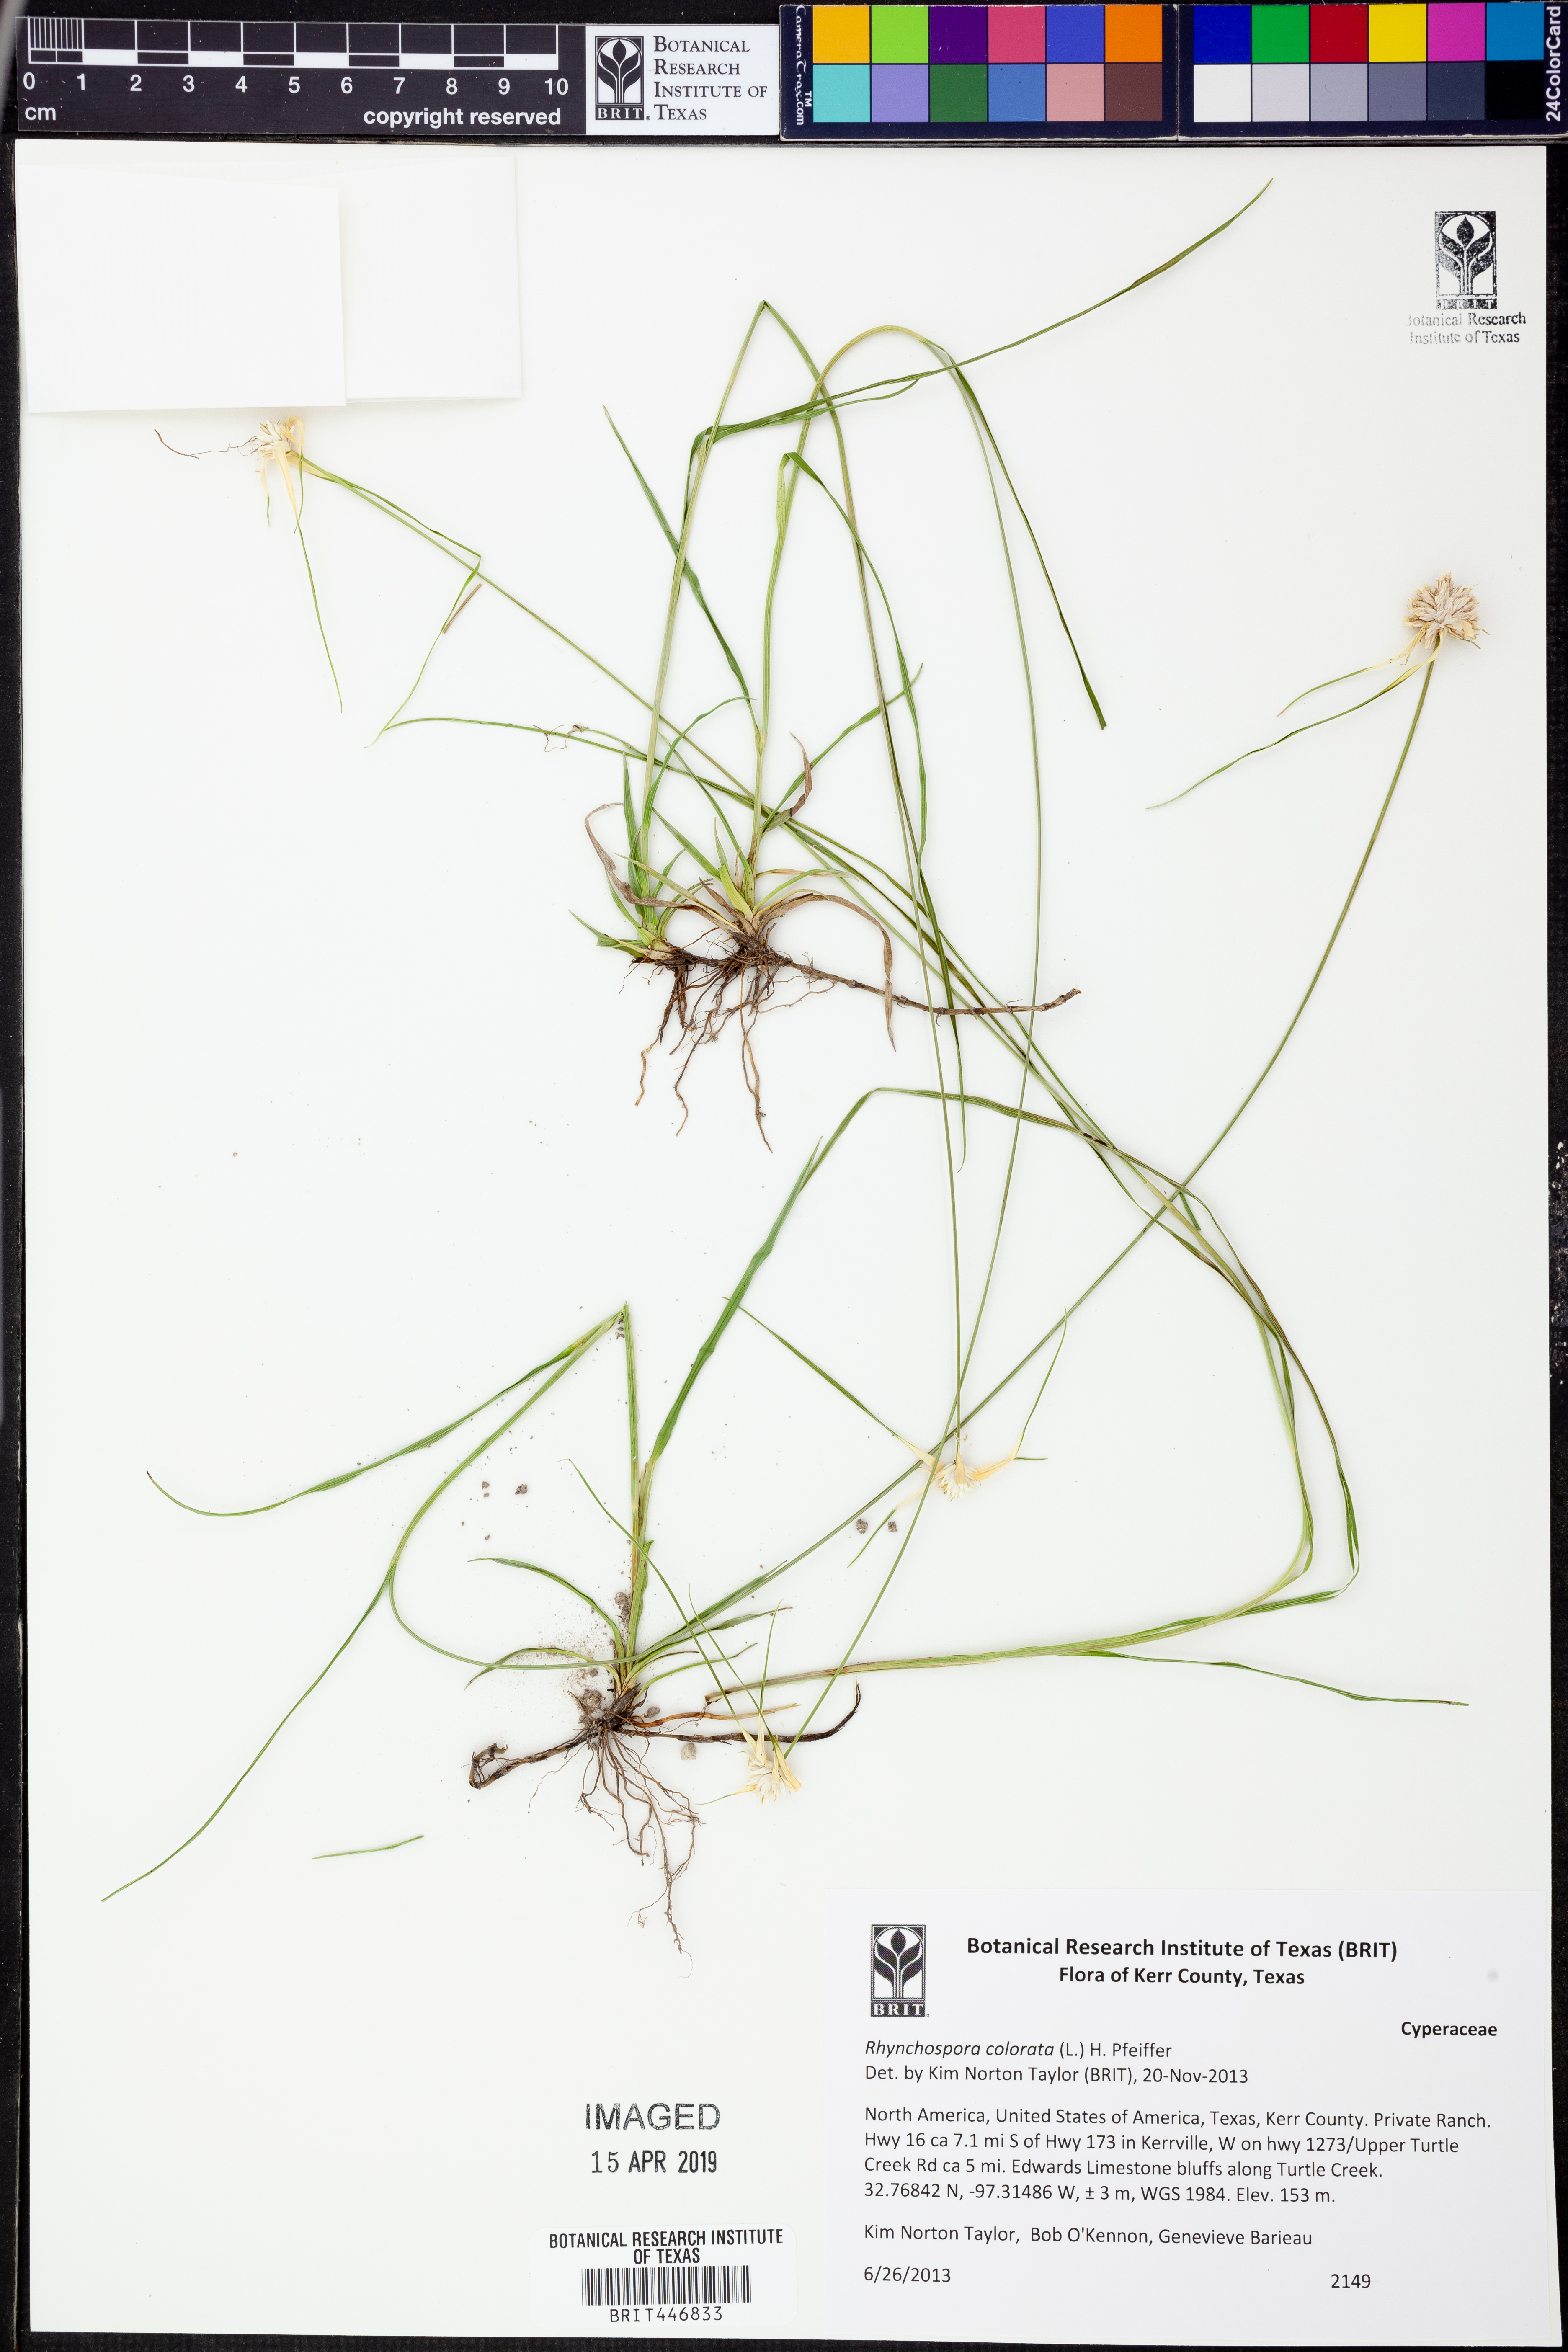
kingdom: Plantae
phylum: Tracheophyta
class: Liliopsida
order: Poales
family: Cyperaceae
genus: Rhynchospora
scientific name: Rhynchospora colorata
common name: Star sedge
